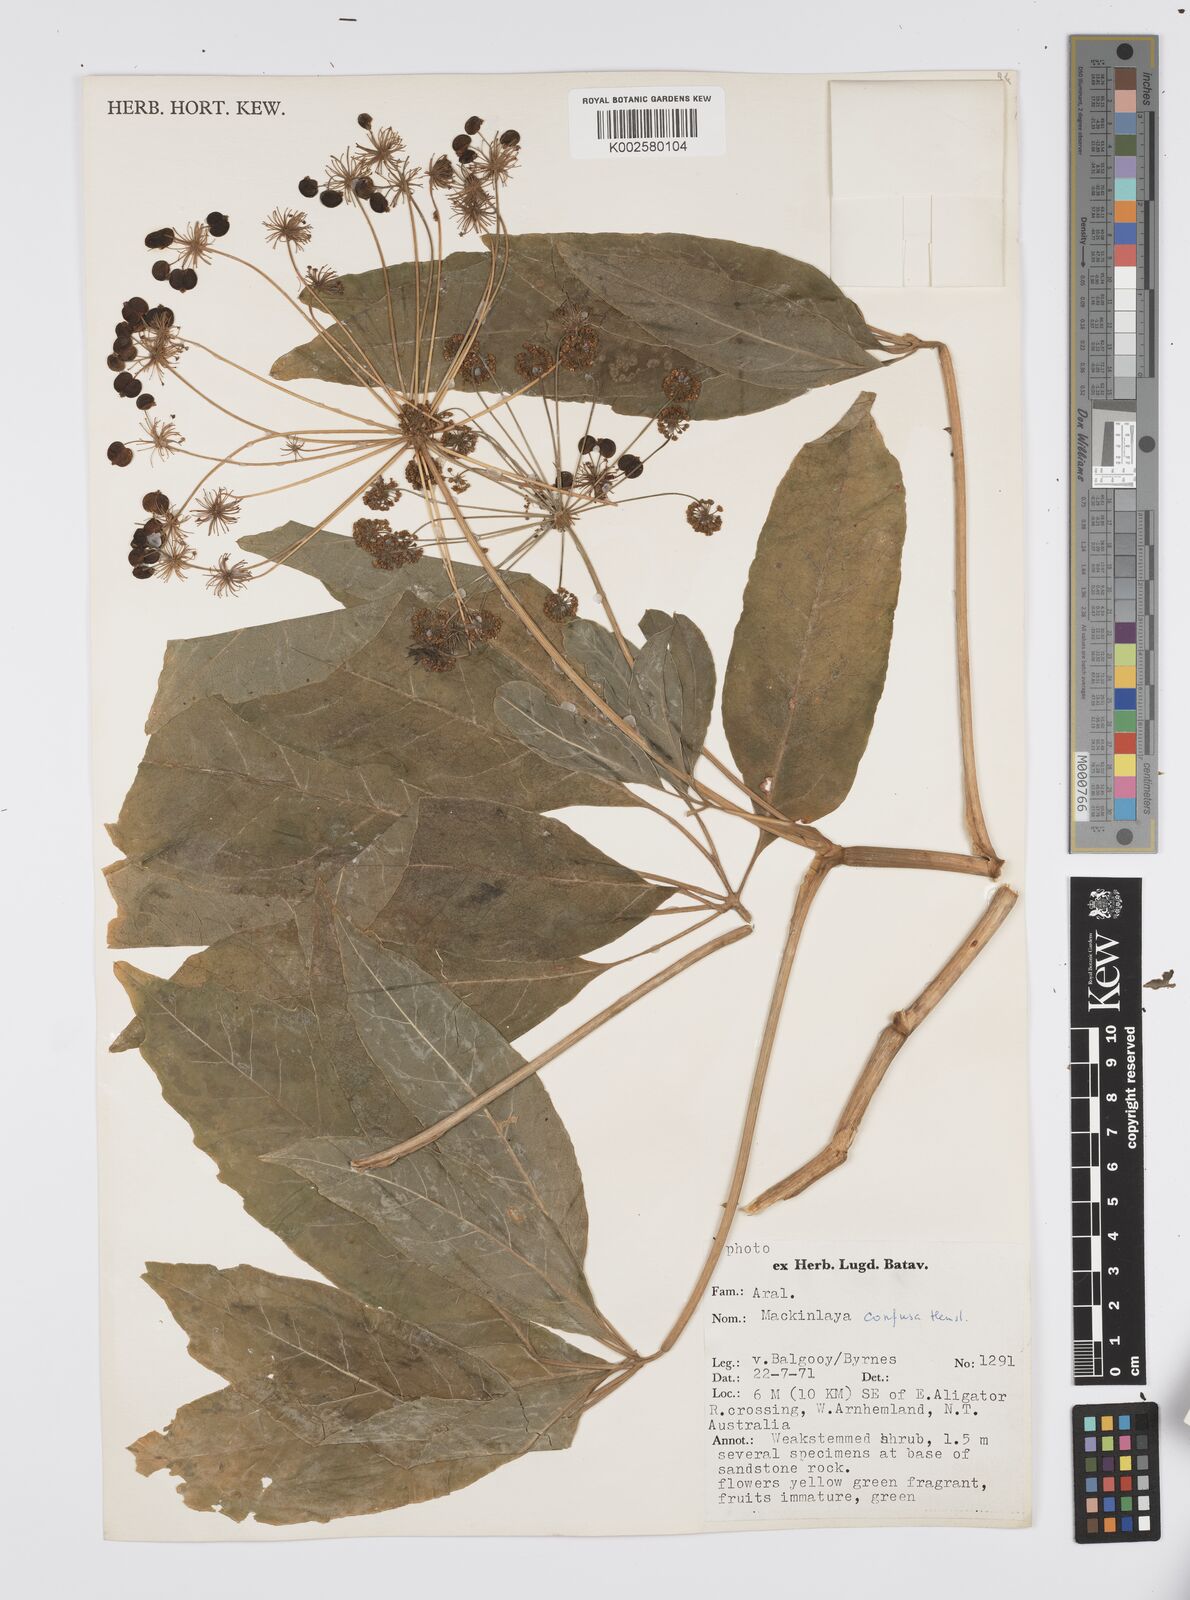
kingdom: Plantae
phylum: Tracheophyta
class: Magnoliopsida
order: Apiales
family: Apiaceae
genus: Mackinlaya
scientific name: Mackinlaya confusa
